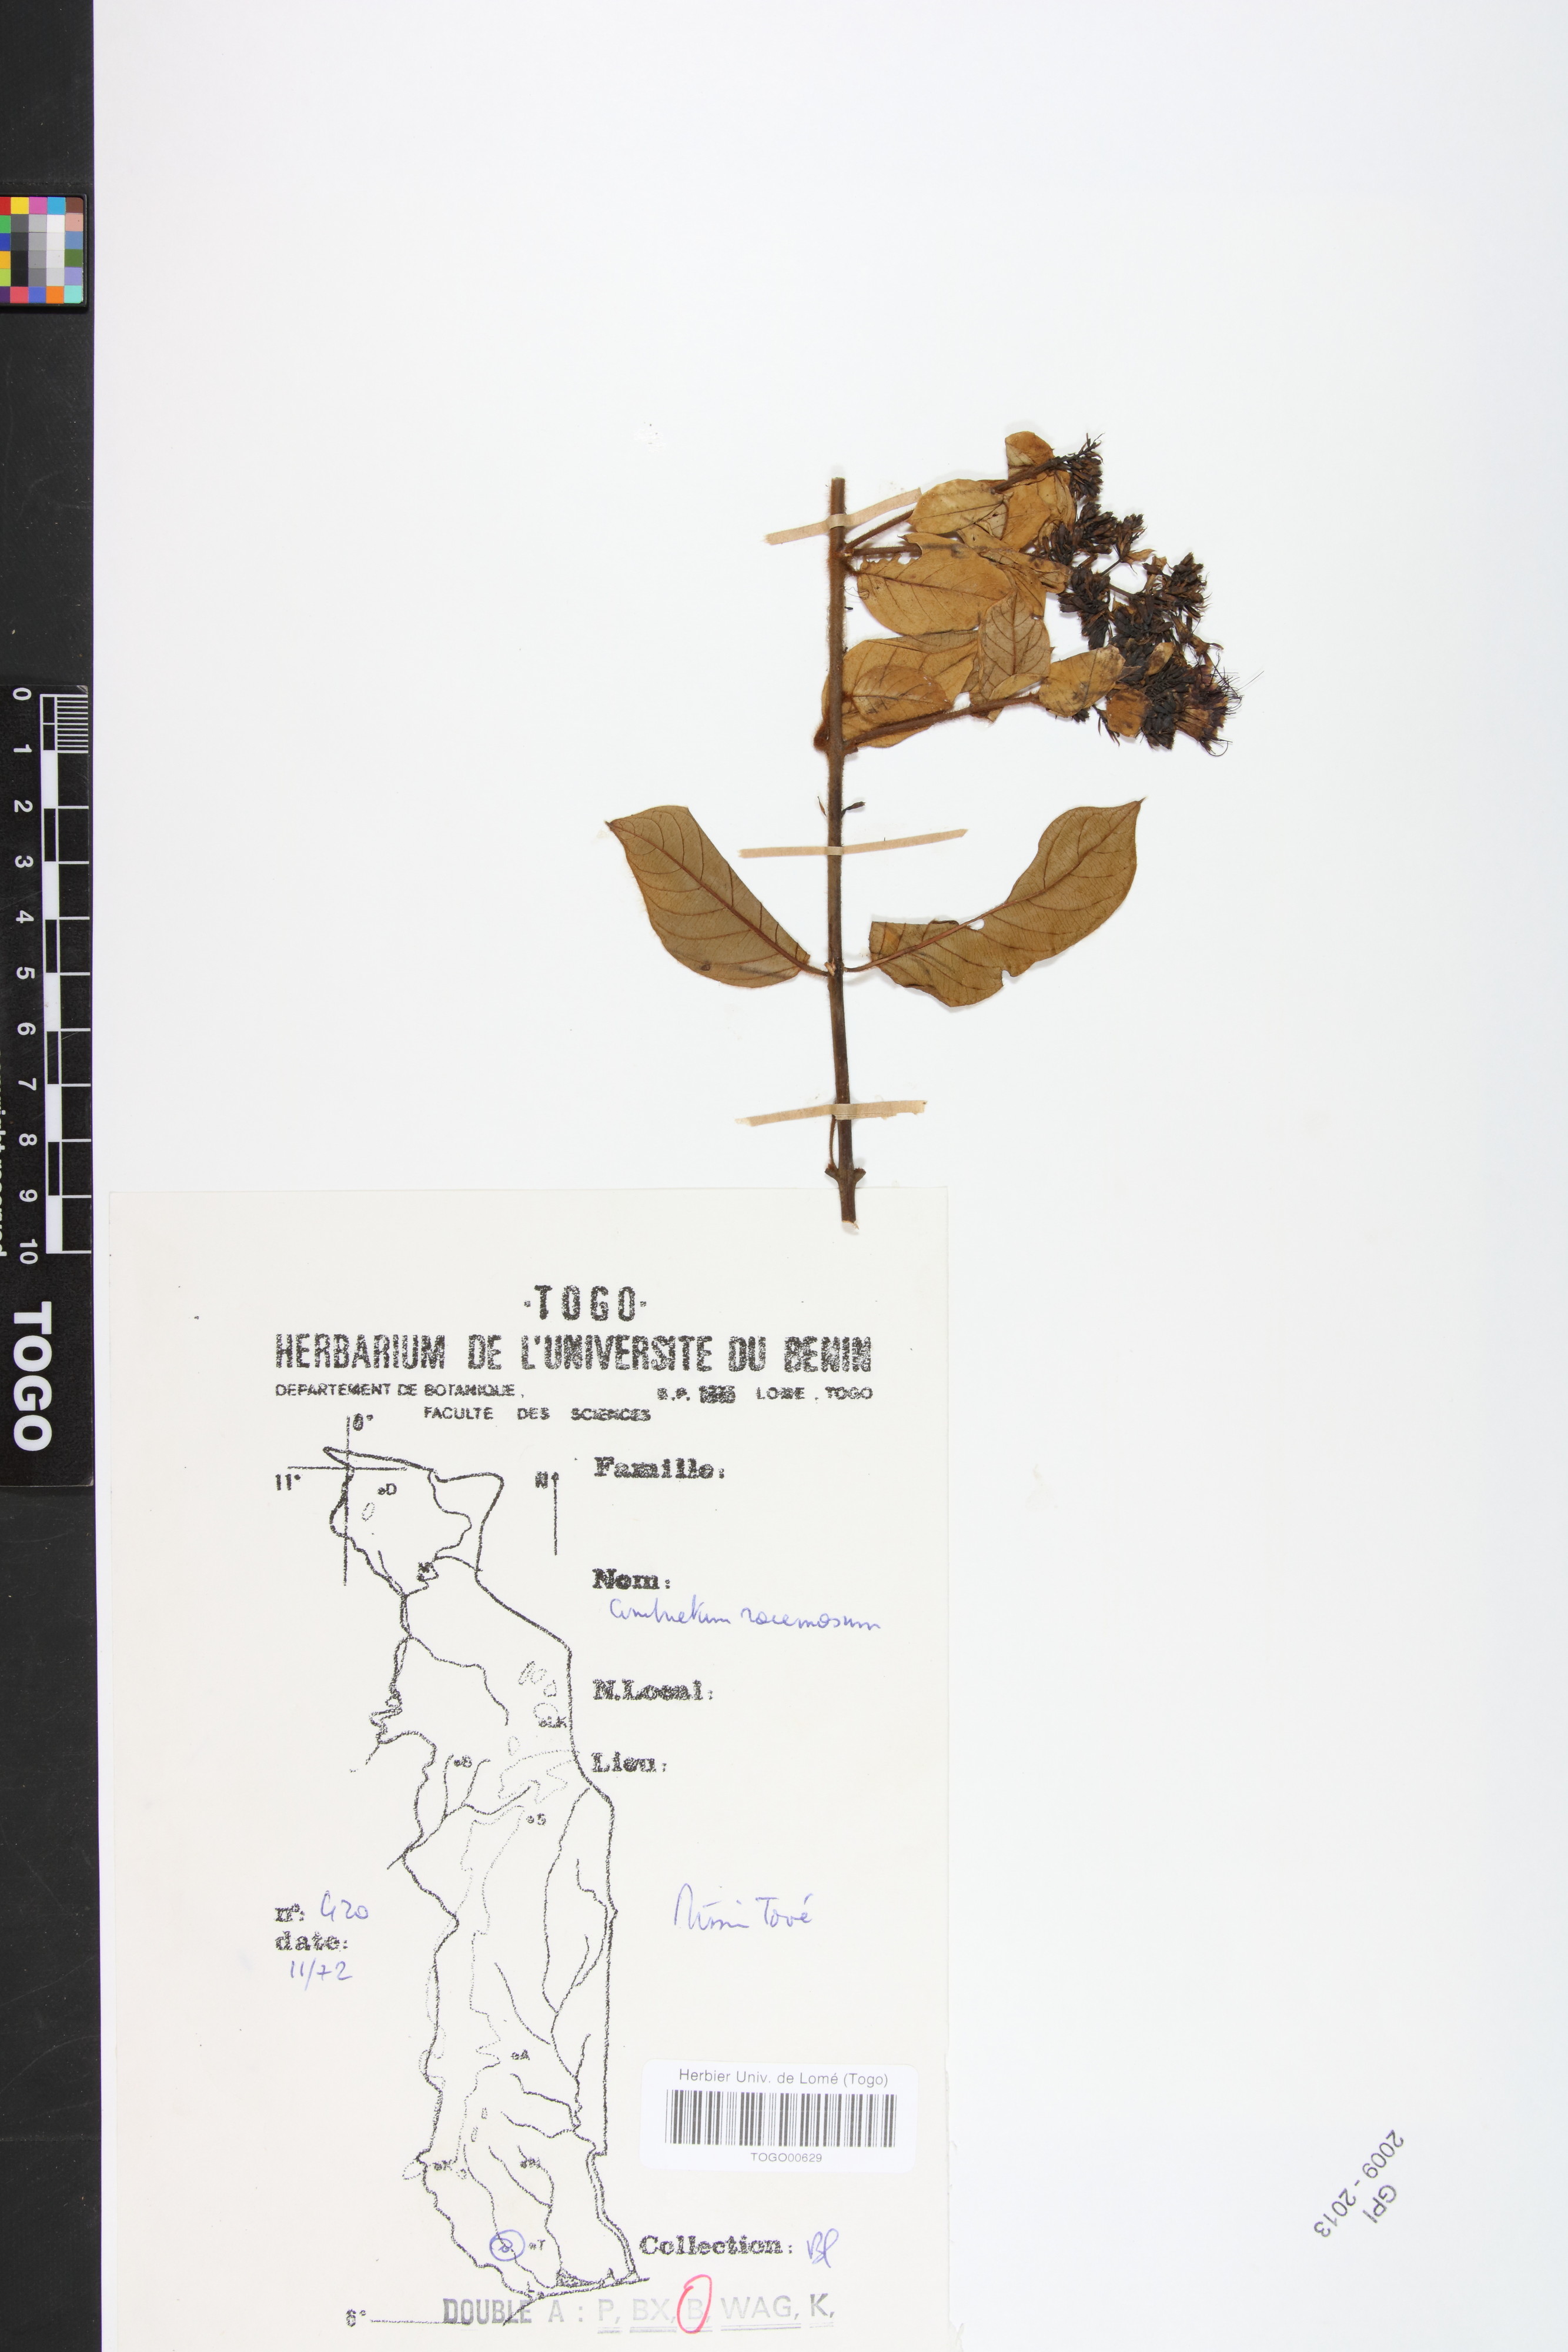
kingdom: Plantae
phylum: Tracheophyta
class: Magnoliopsida
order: Myrtales
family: Combretaceae
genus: Combretum
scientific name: Combretum racemosum
